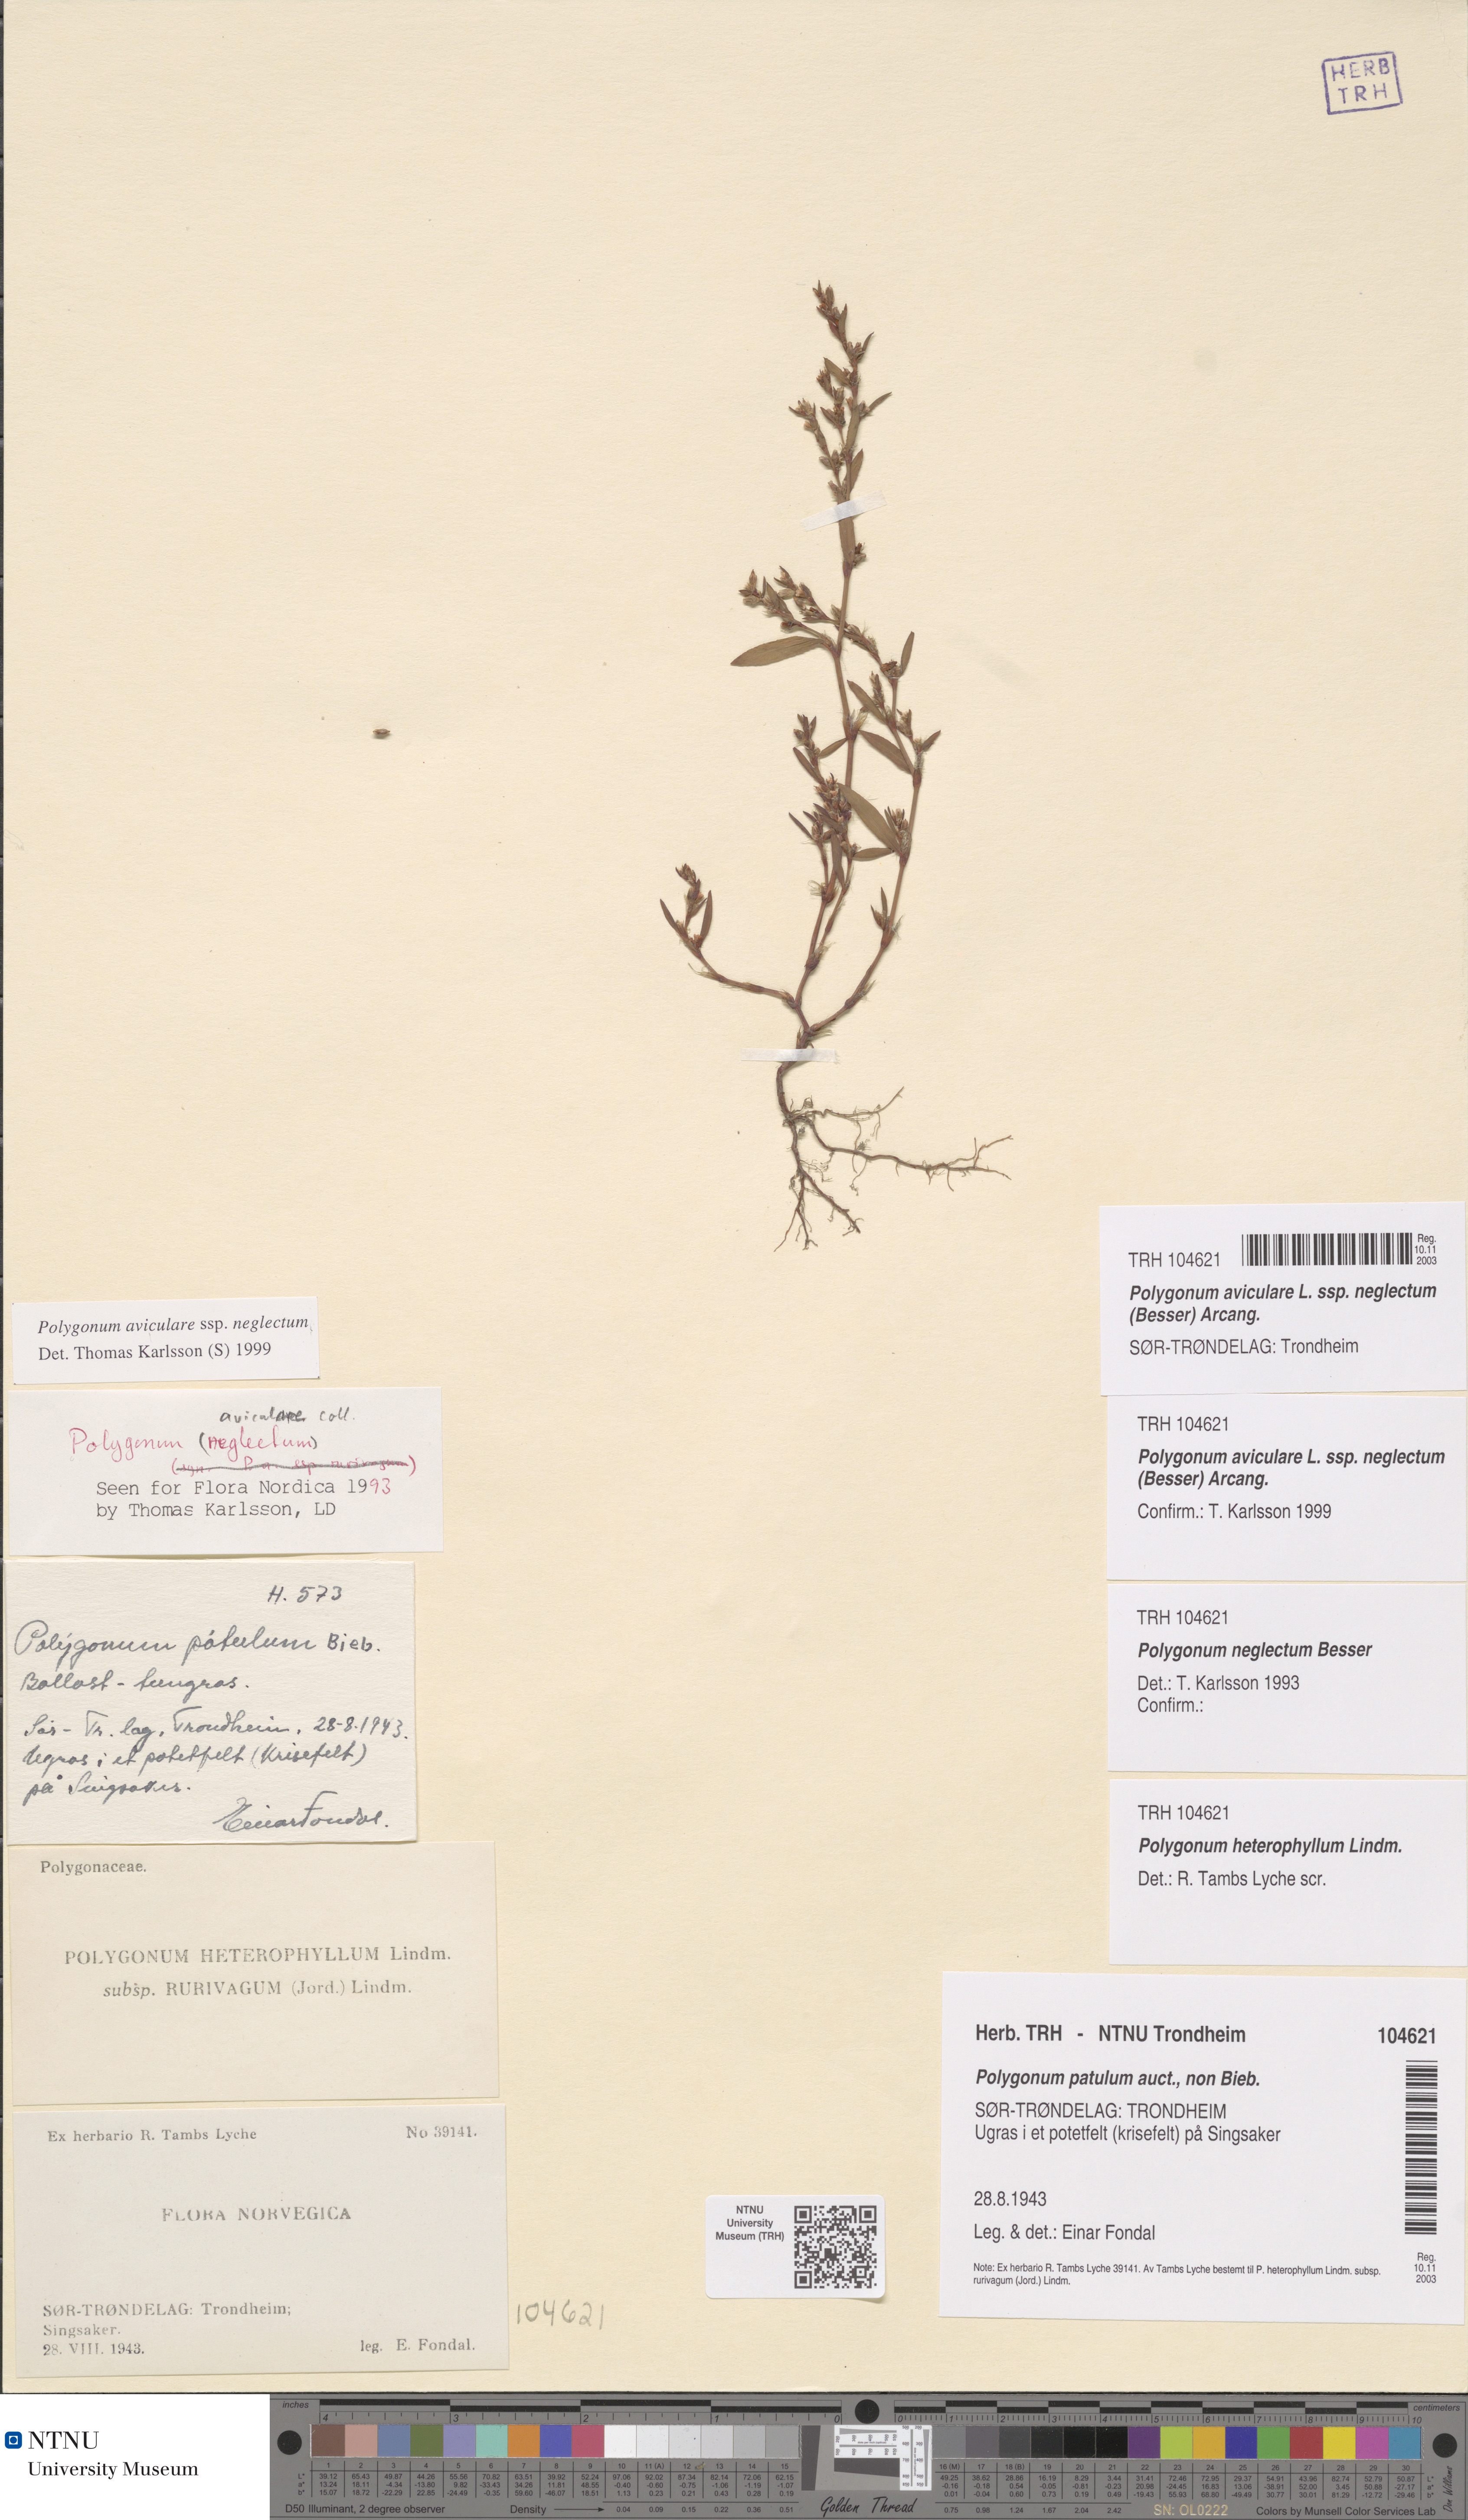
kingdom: Plantae
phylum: Tracheophyta
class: Magnoliopsida
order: Caryophyllales
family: Polygonaceae
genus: Polygonum
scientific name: Polygonum aviculare
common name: Prostrate knotweed
